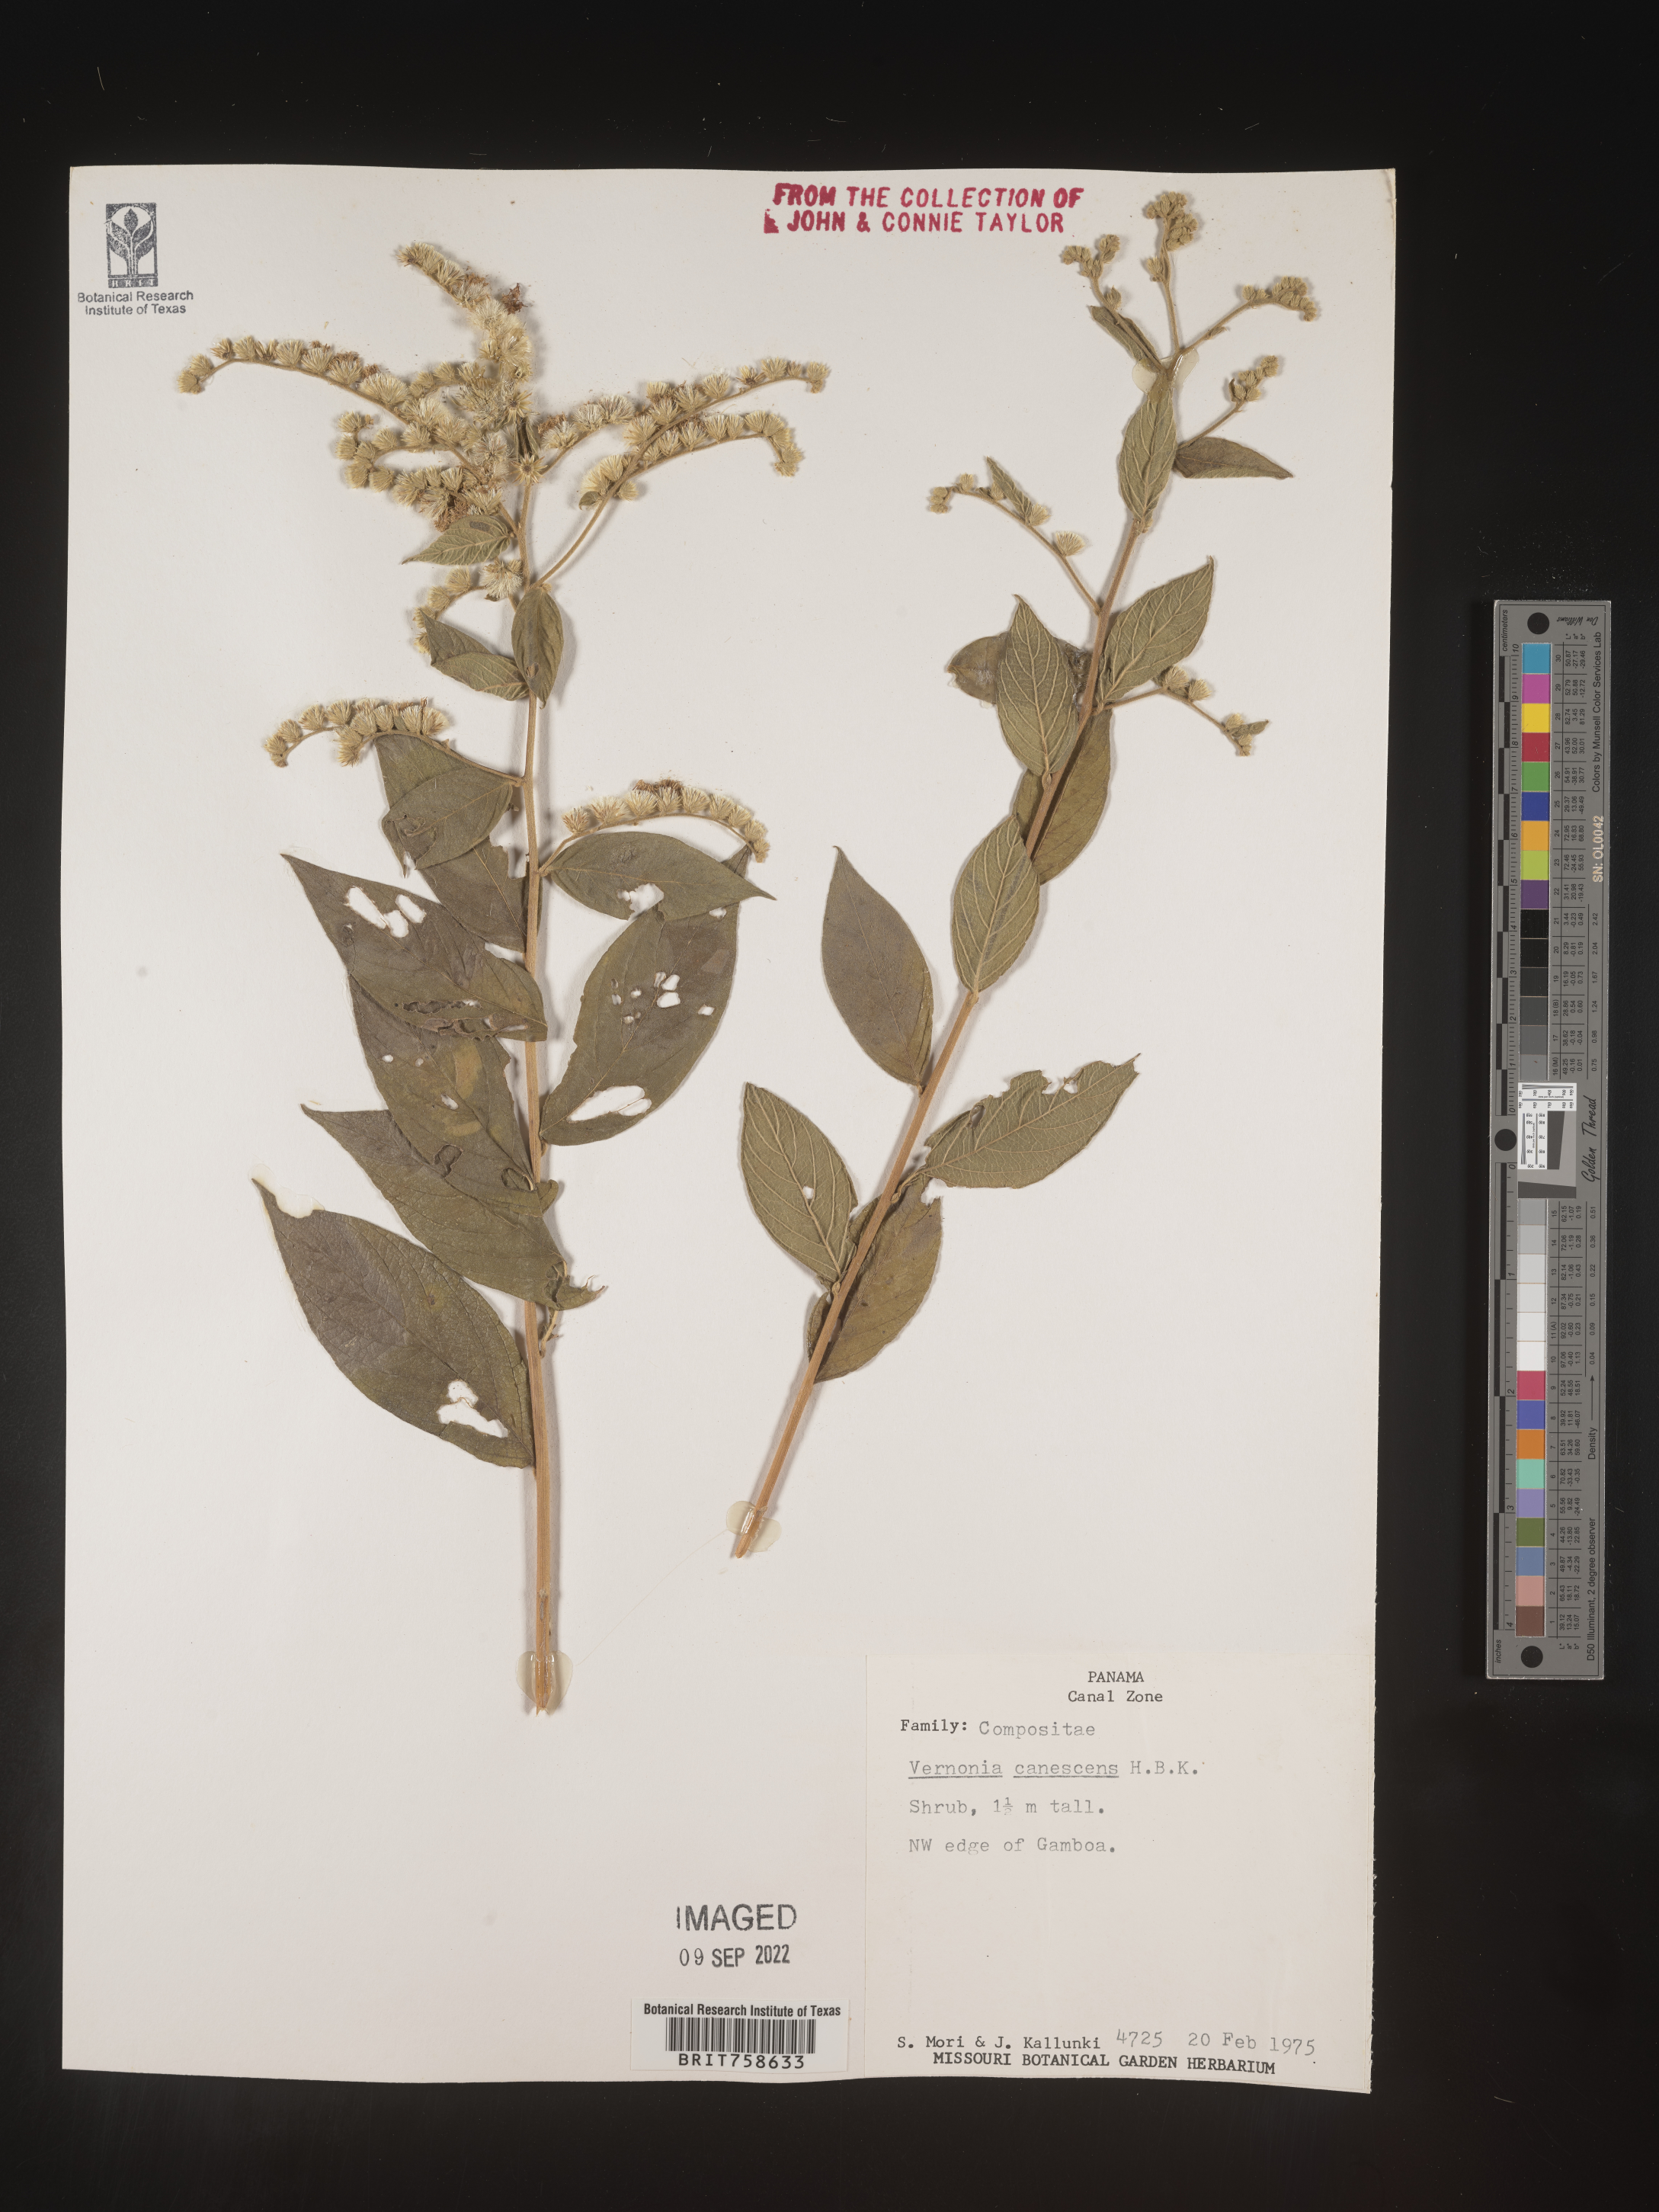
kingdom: Plantae
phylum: Tracheophyta
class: Magnoliopsida
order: Asterales
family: Asteraceae
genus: Vernonia
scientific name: Vernonia
